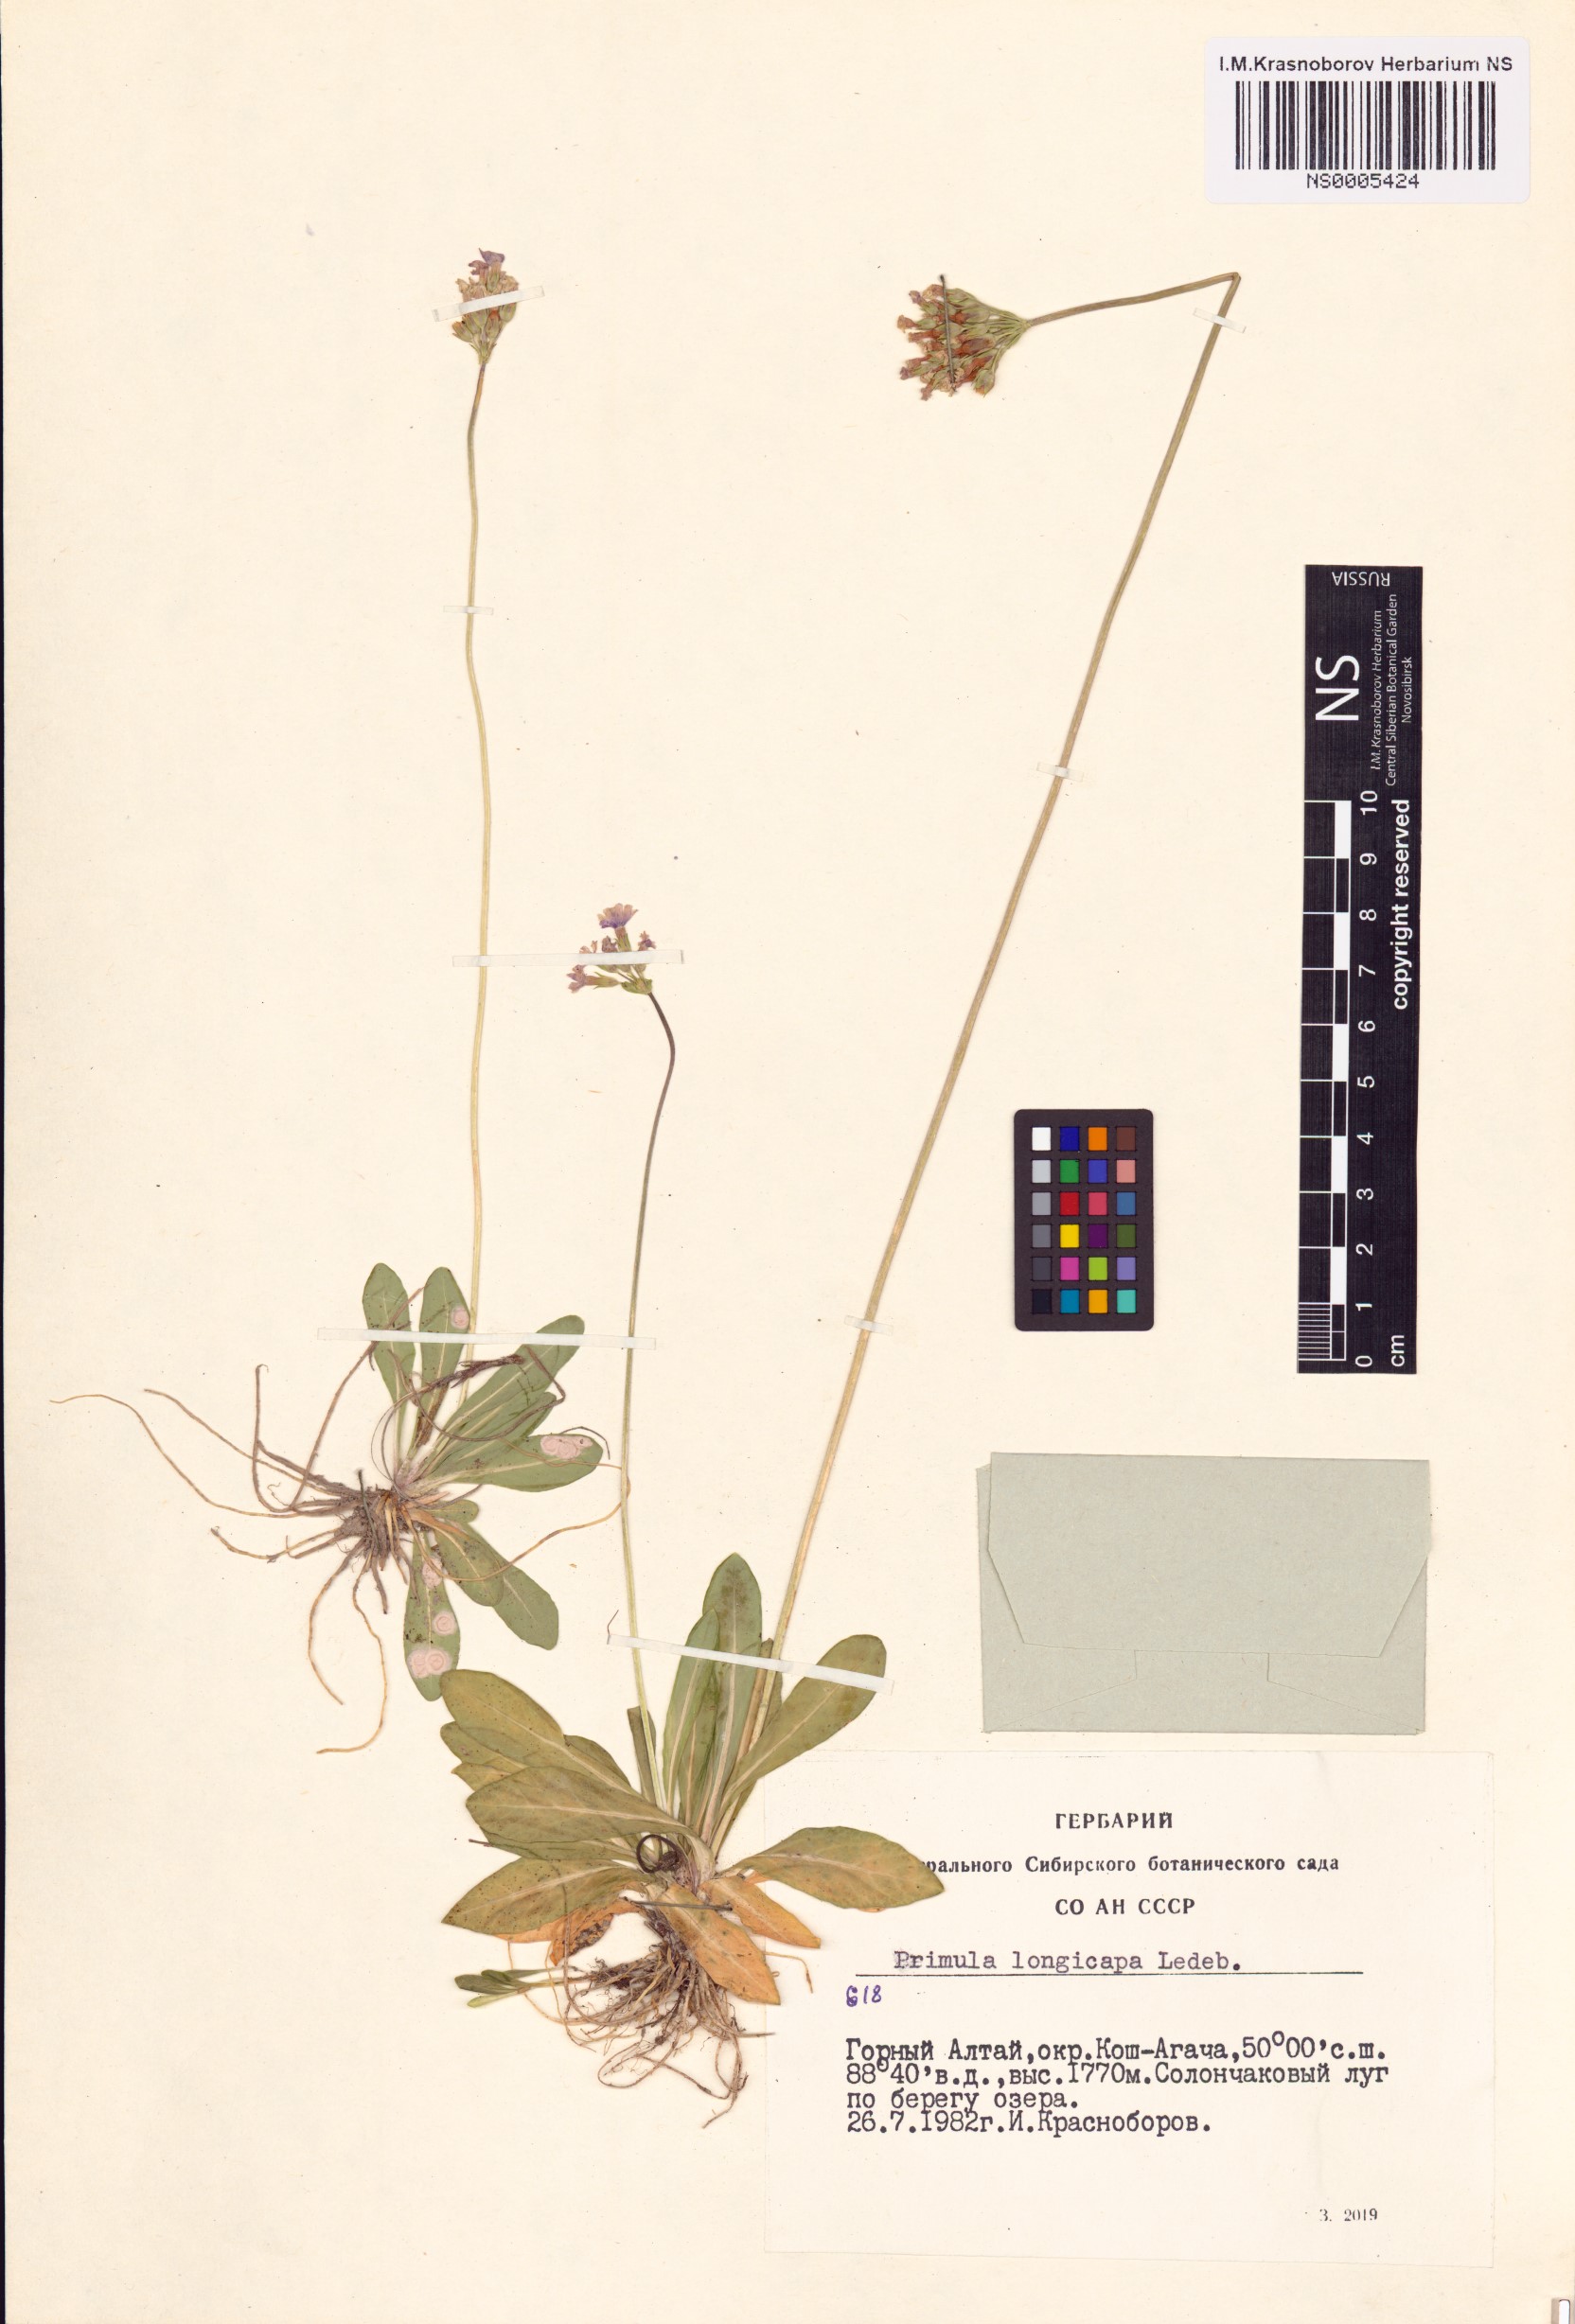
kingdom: Plantae
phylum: Tracheophyta
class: Magnoliopsida
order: Ericales
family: Primulaceae
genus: Primula
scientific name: Primula longiscapa
